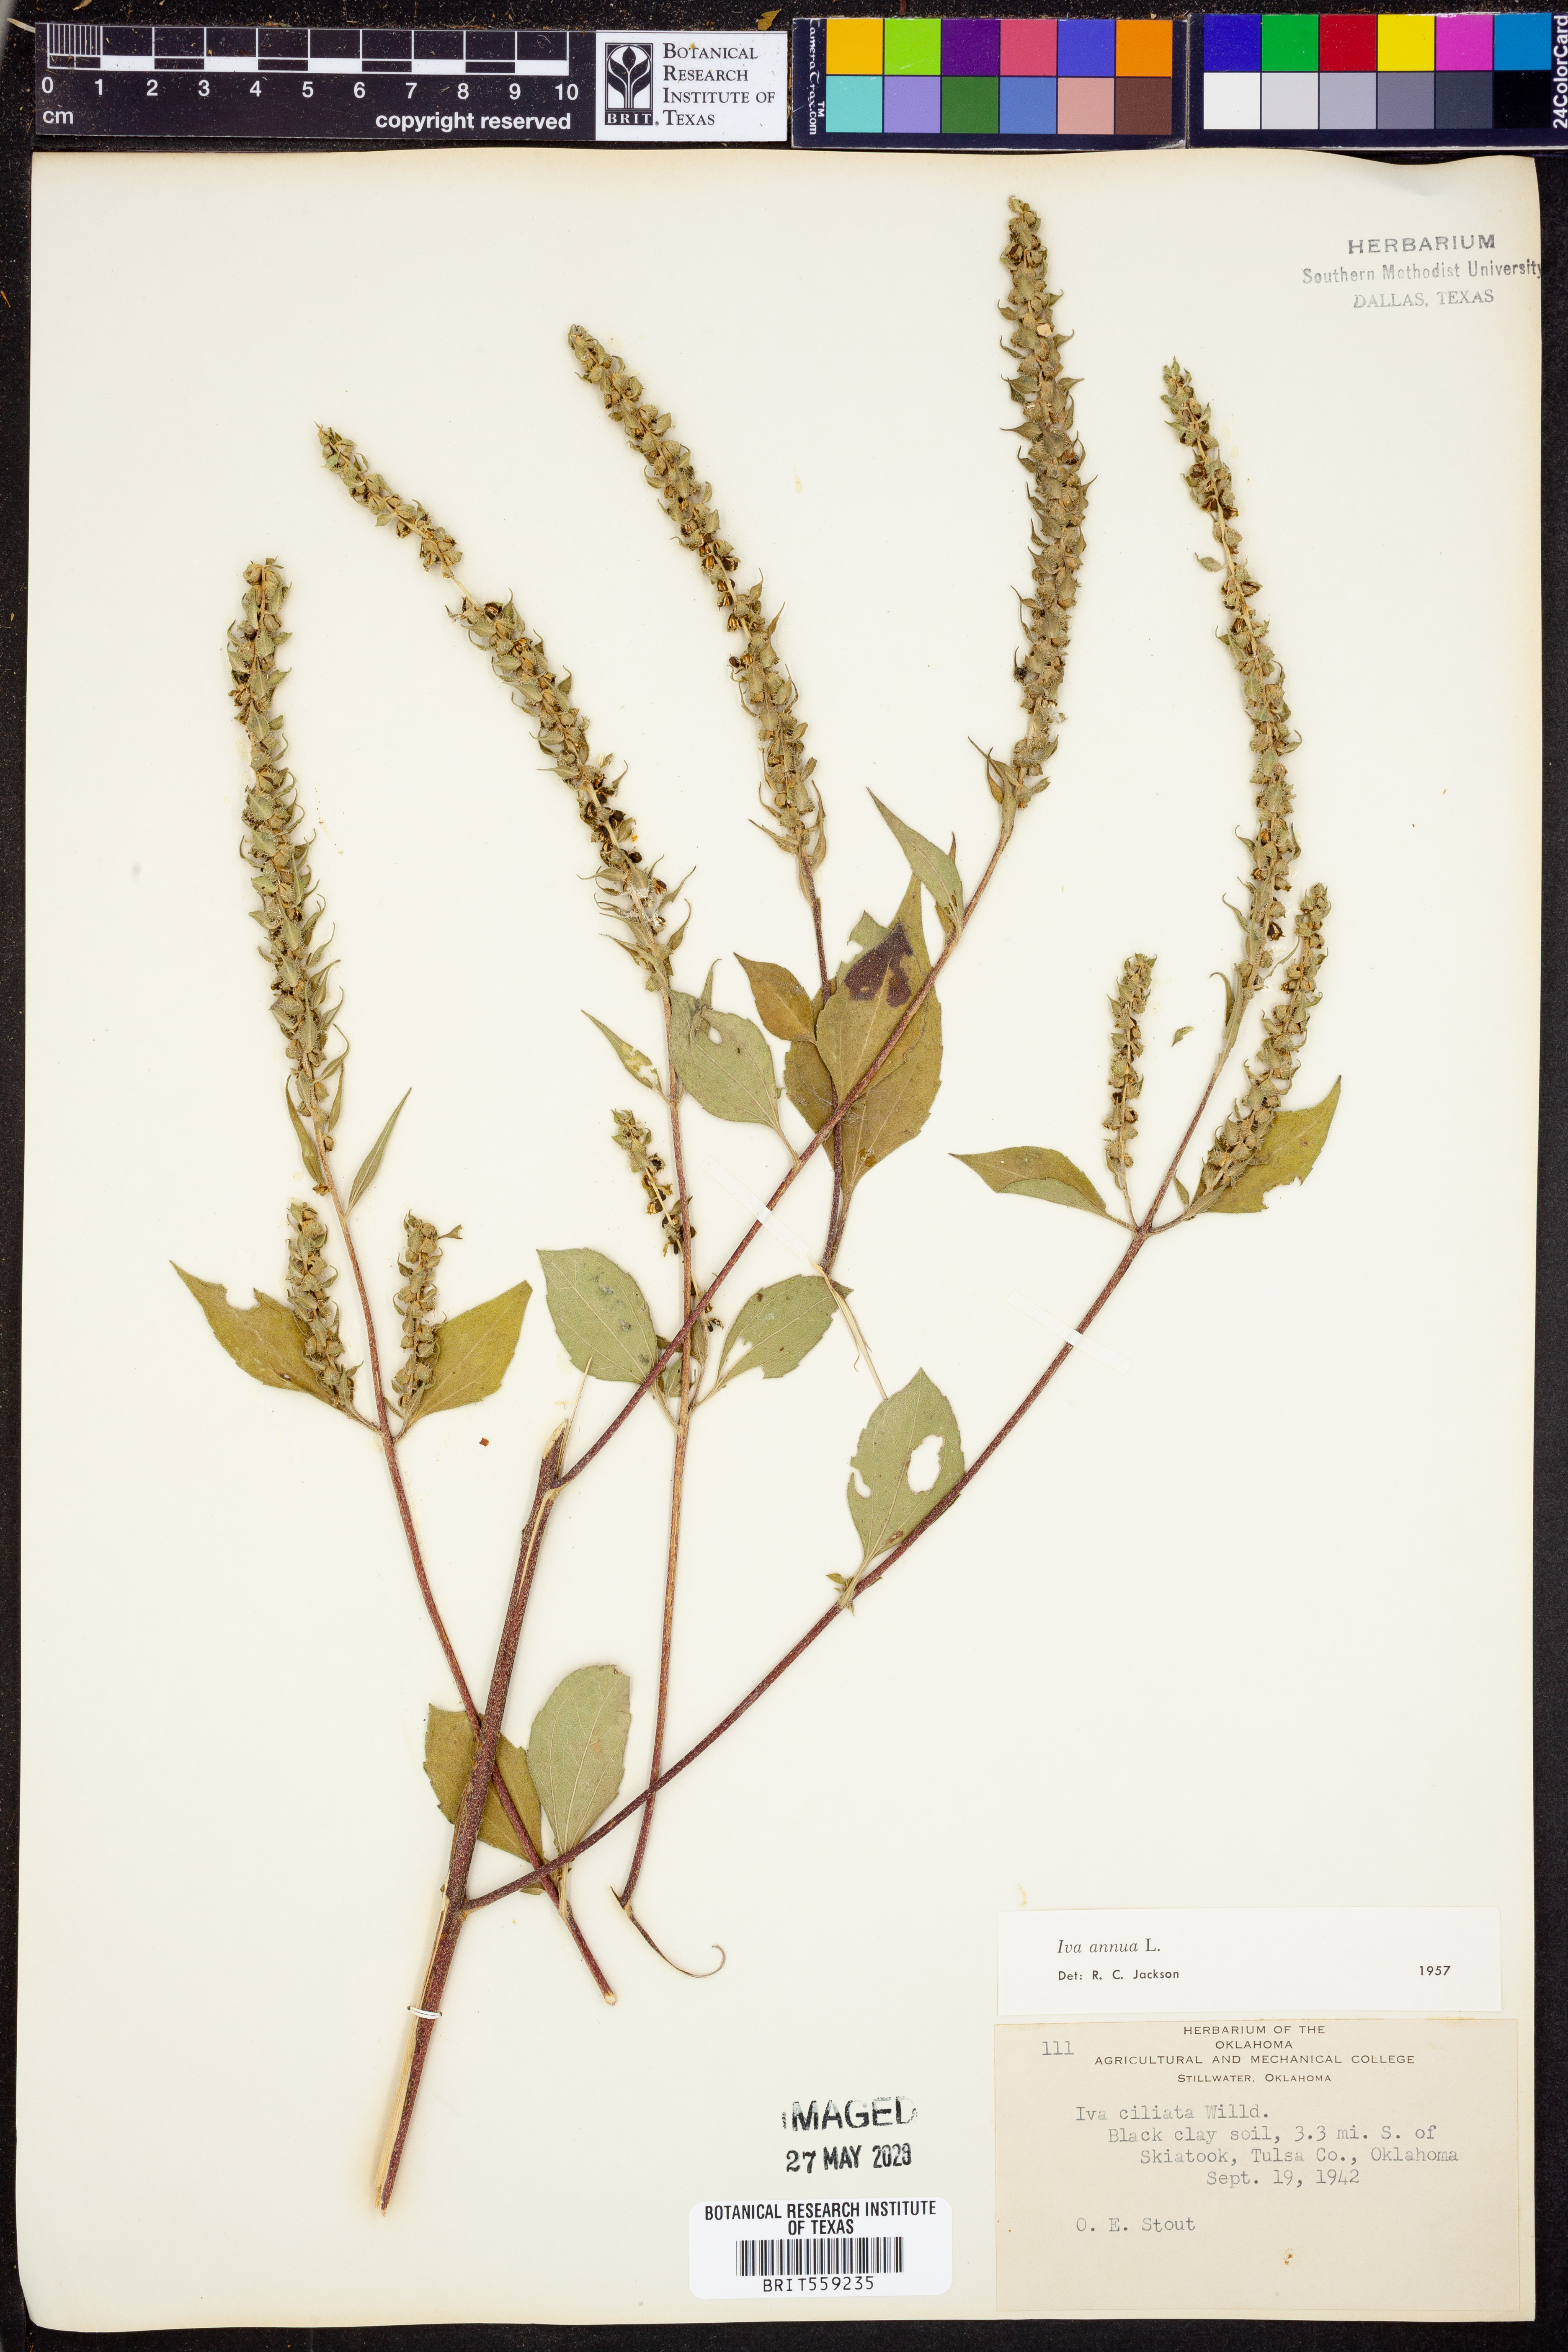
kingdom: Plantae
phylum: Tracheophyta
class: Magnoliopsida
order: Asterales
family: Asteraceae
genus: Iva
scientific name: Iva annua
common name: Marsh-elder
